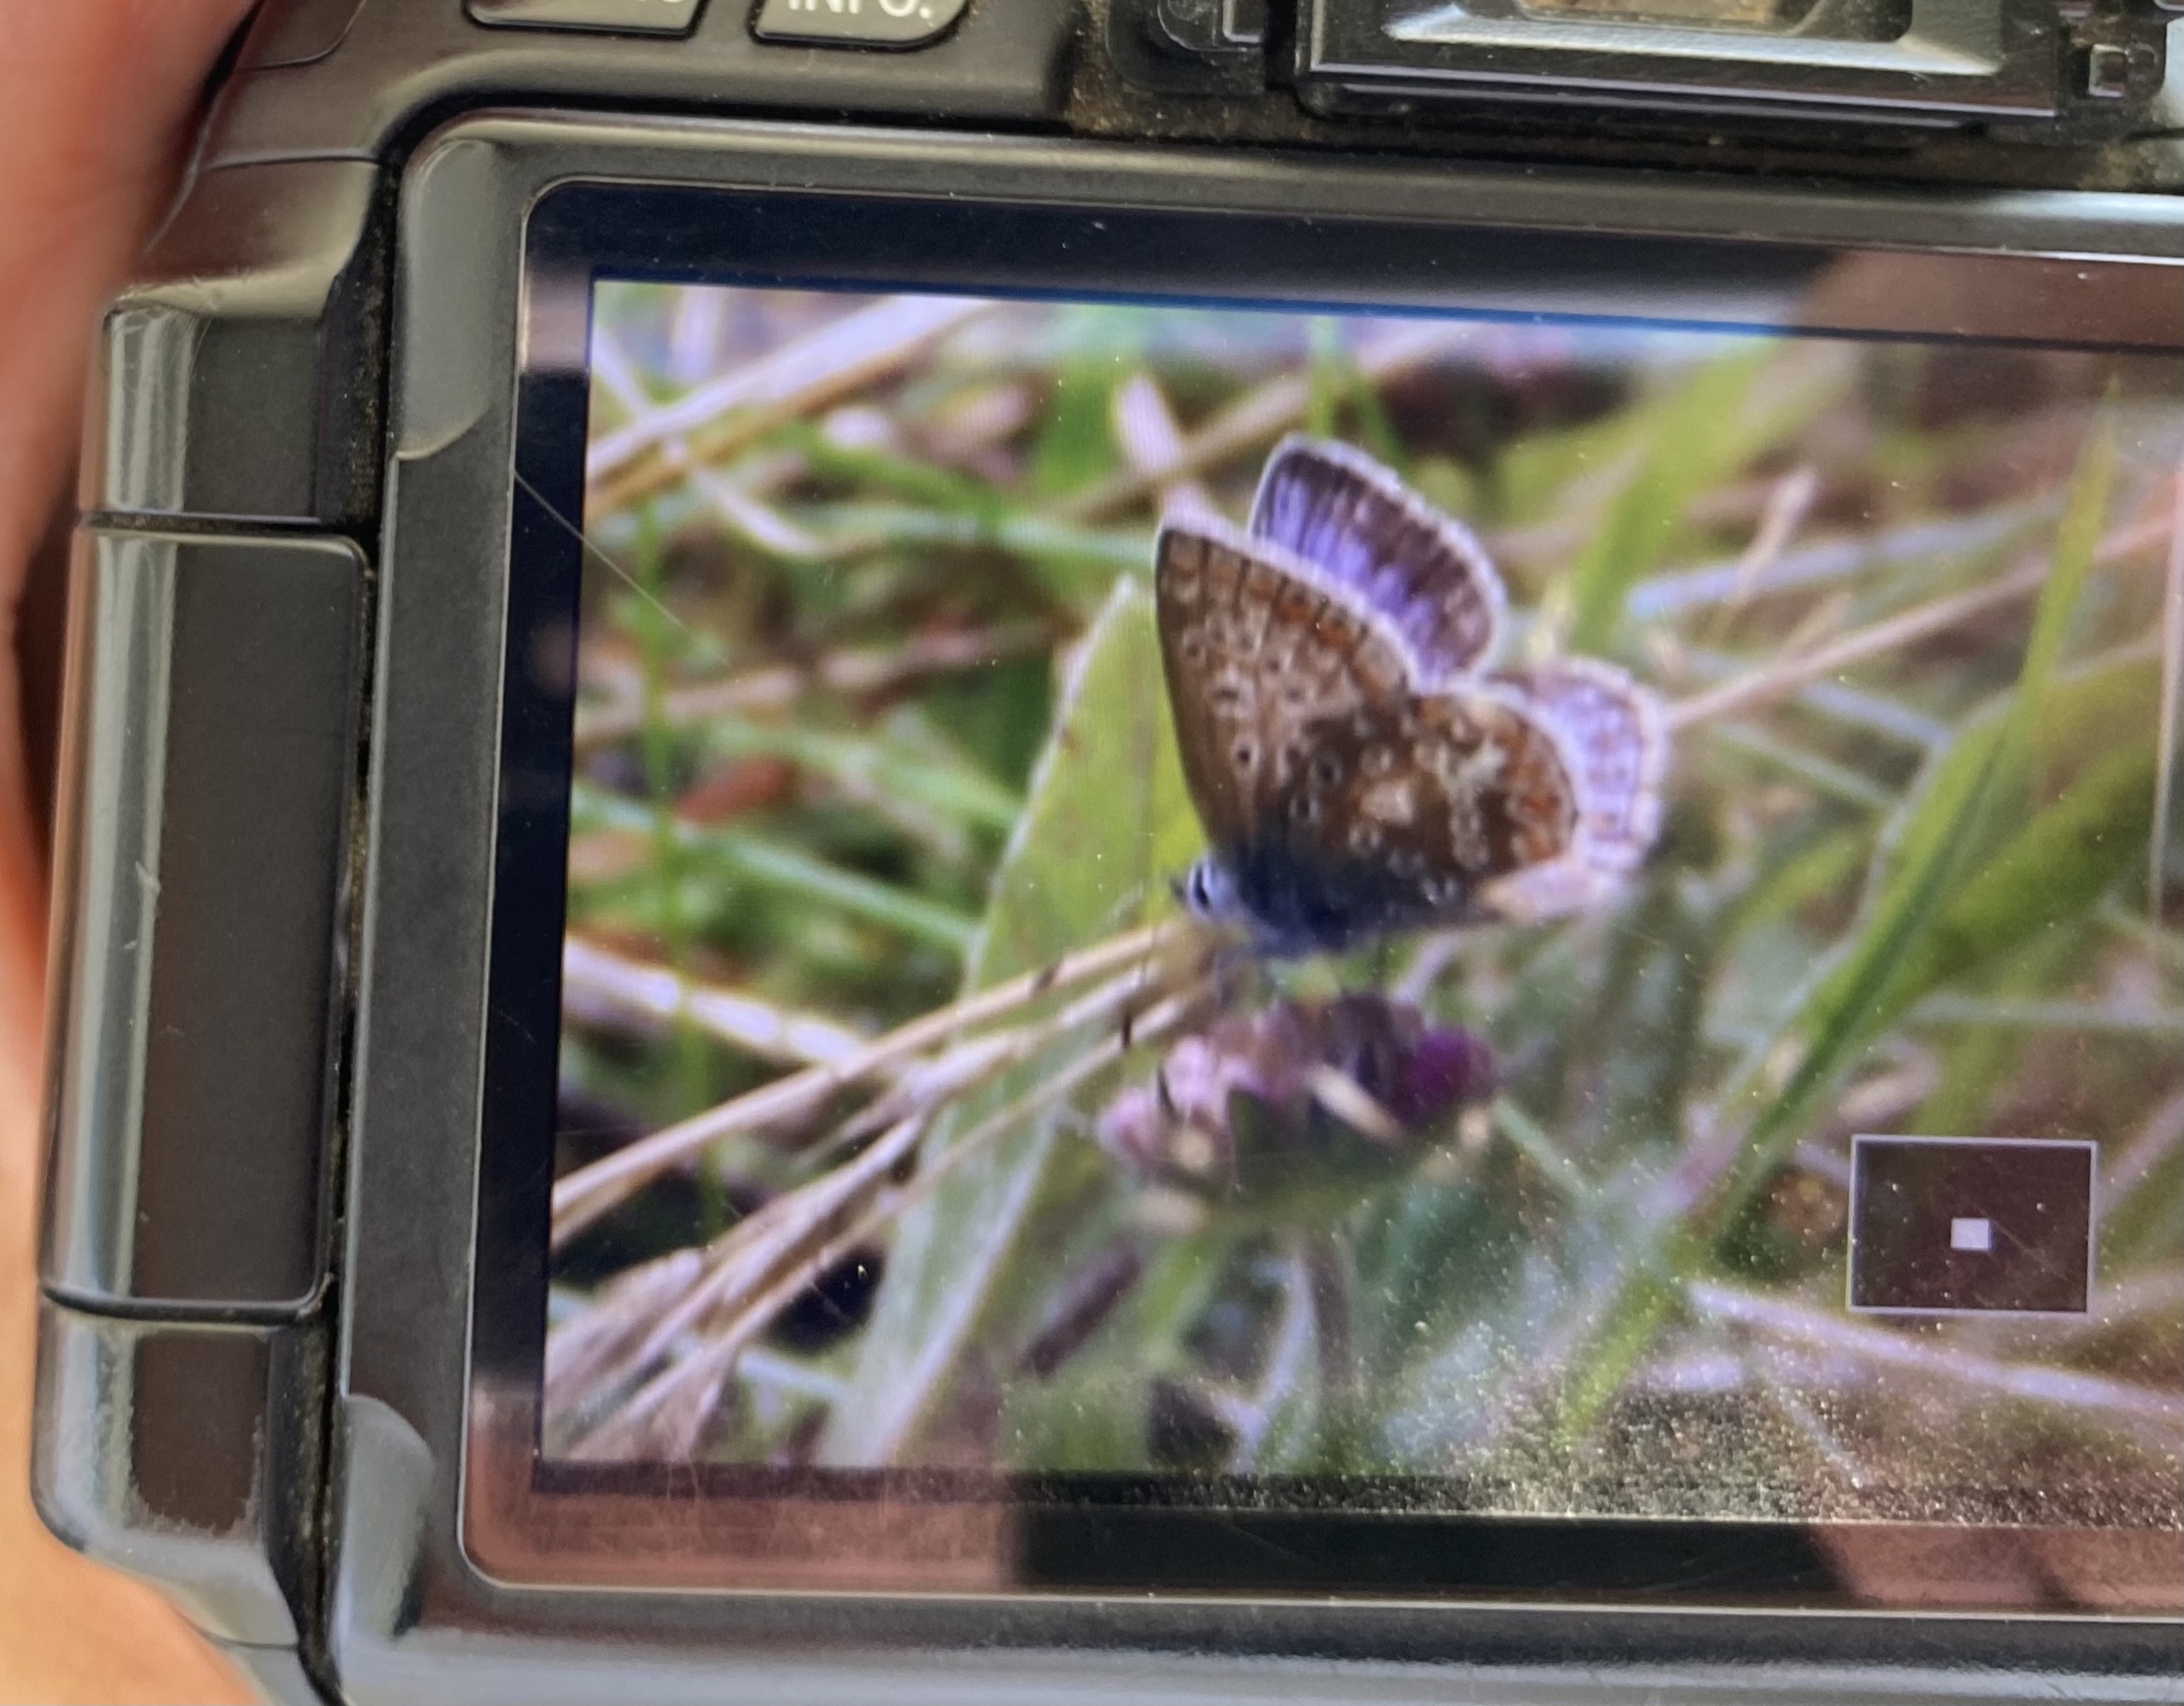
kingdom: Animalia
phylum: Arthropoda
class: Insecta
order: Lepidoptera
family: Lycaenidae
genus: Polyommatus
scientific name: Polyommatus icarus
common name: Almindelig blåfugl
